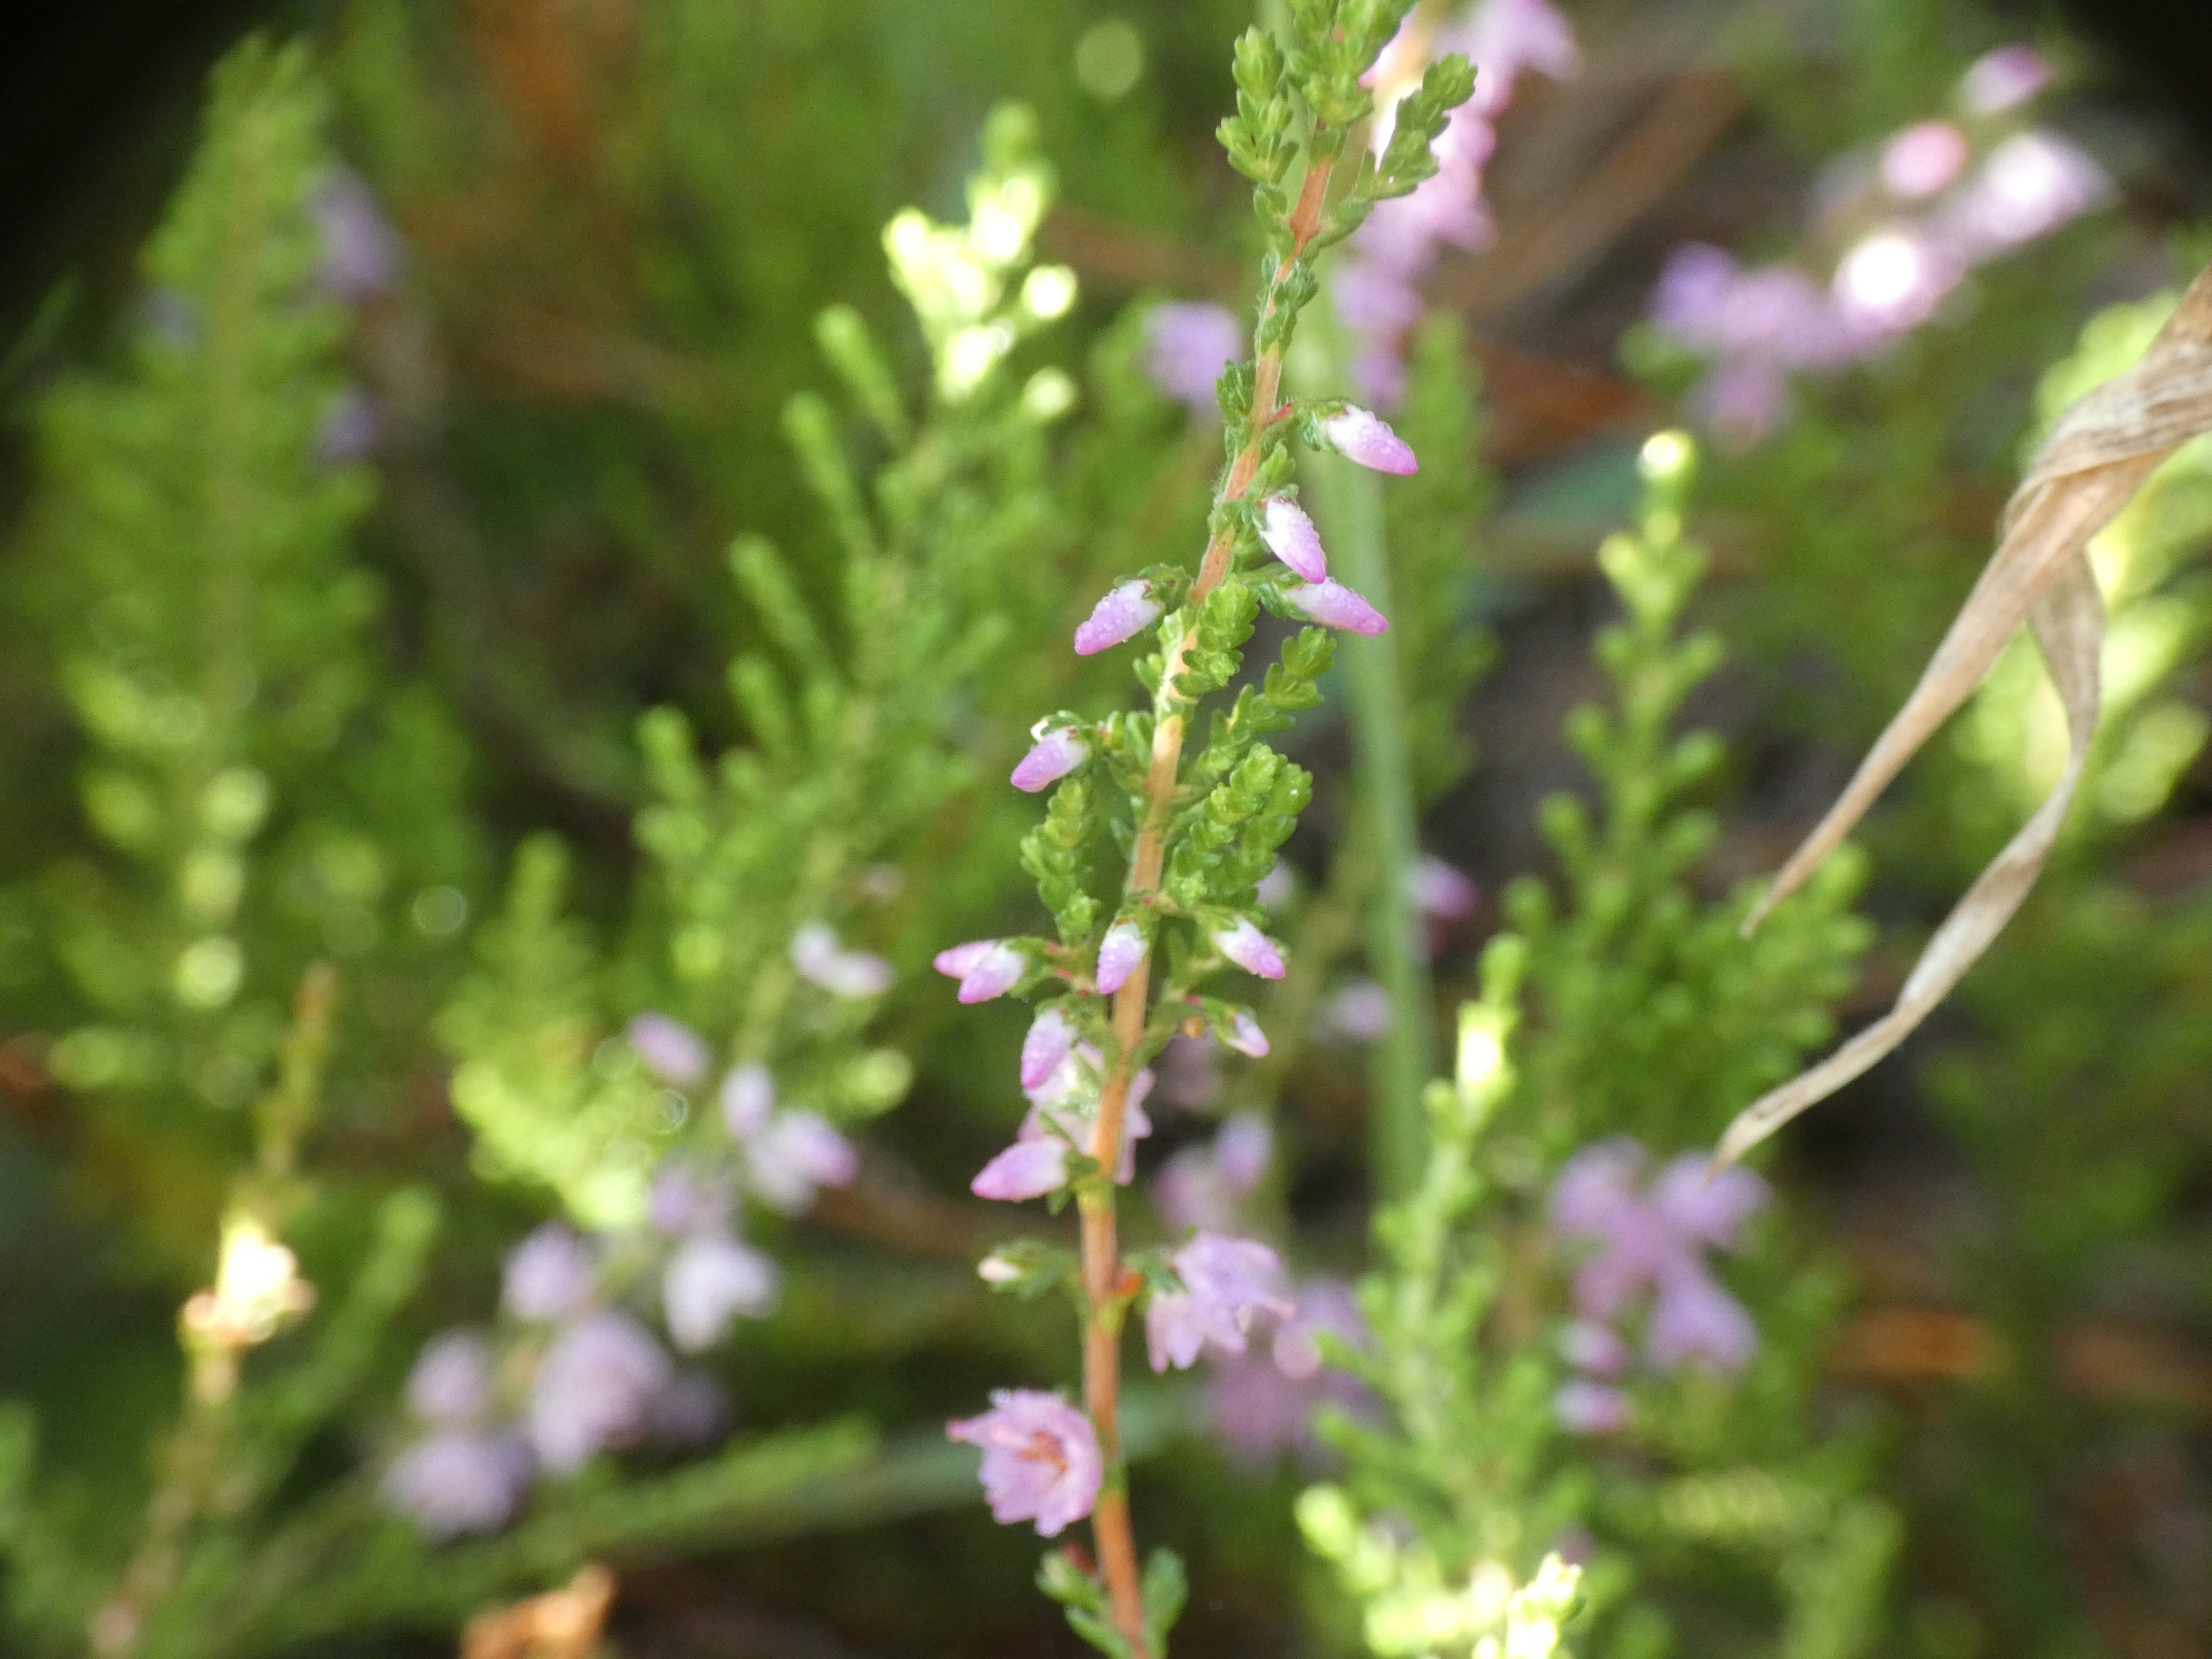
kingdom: Plantae
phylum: Tracheophyta
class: Magnoliopsida
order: Ericales
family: Ericaceae
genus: Calluna
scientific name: Calluna vulgaris
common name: Hedelyng
